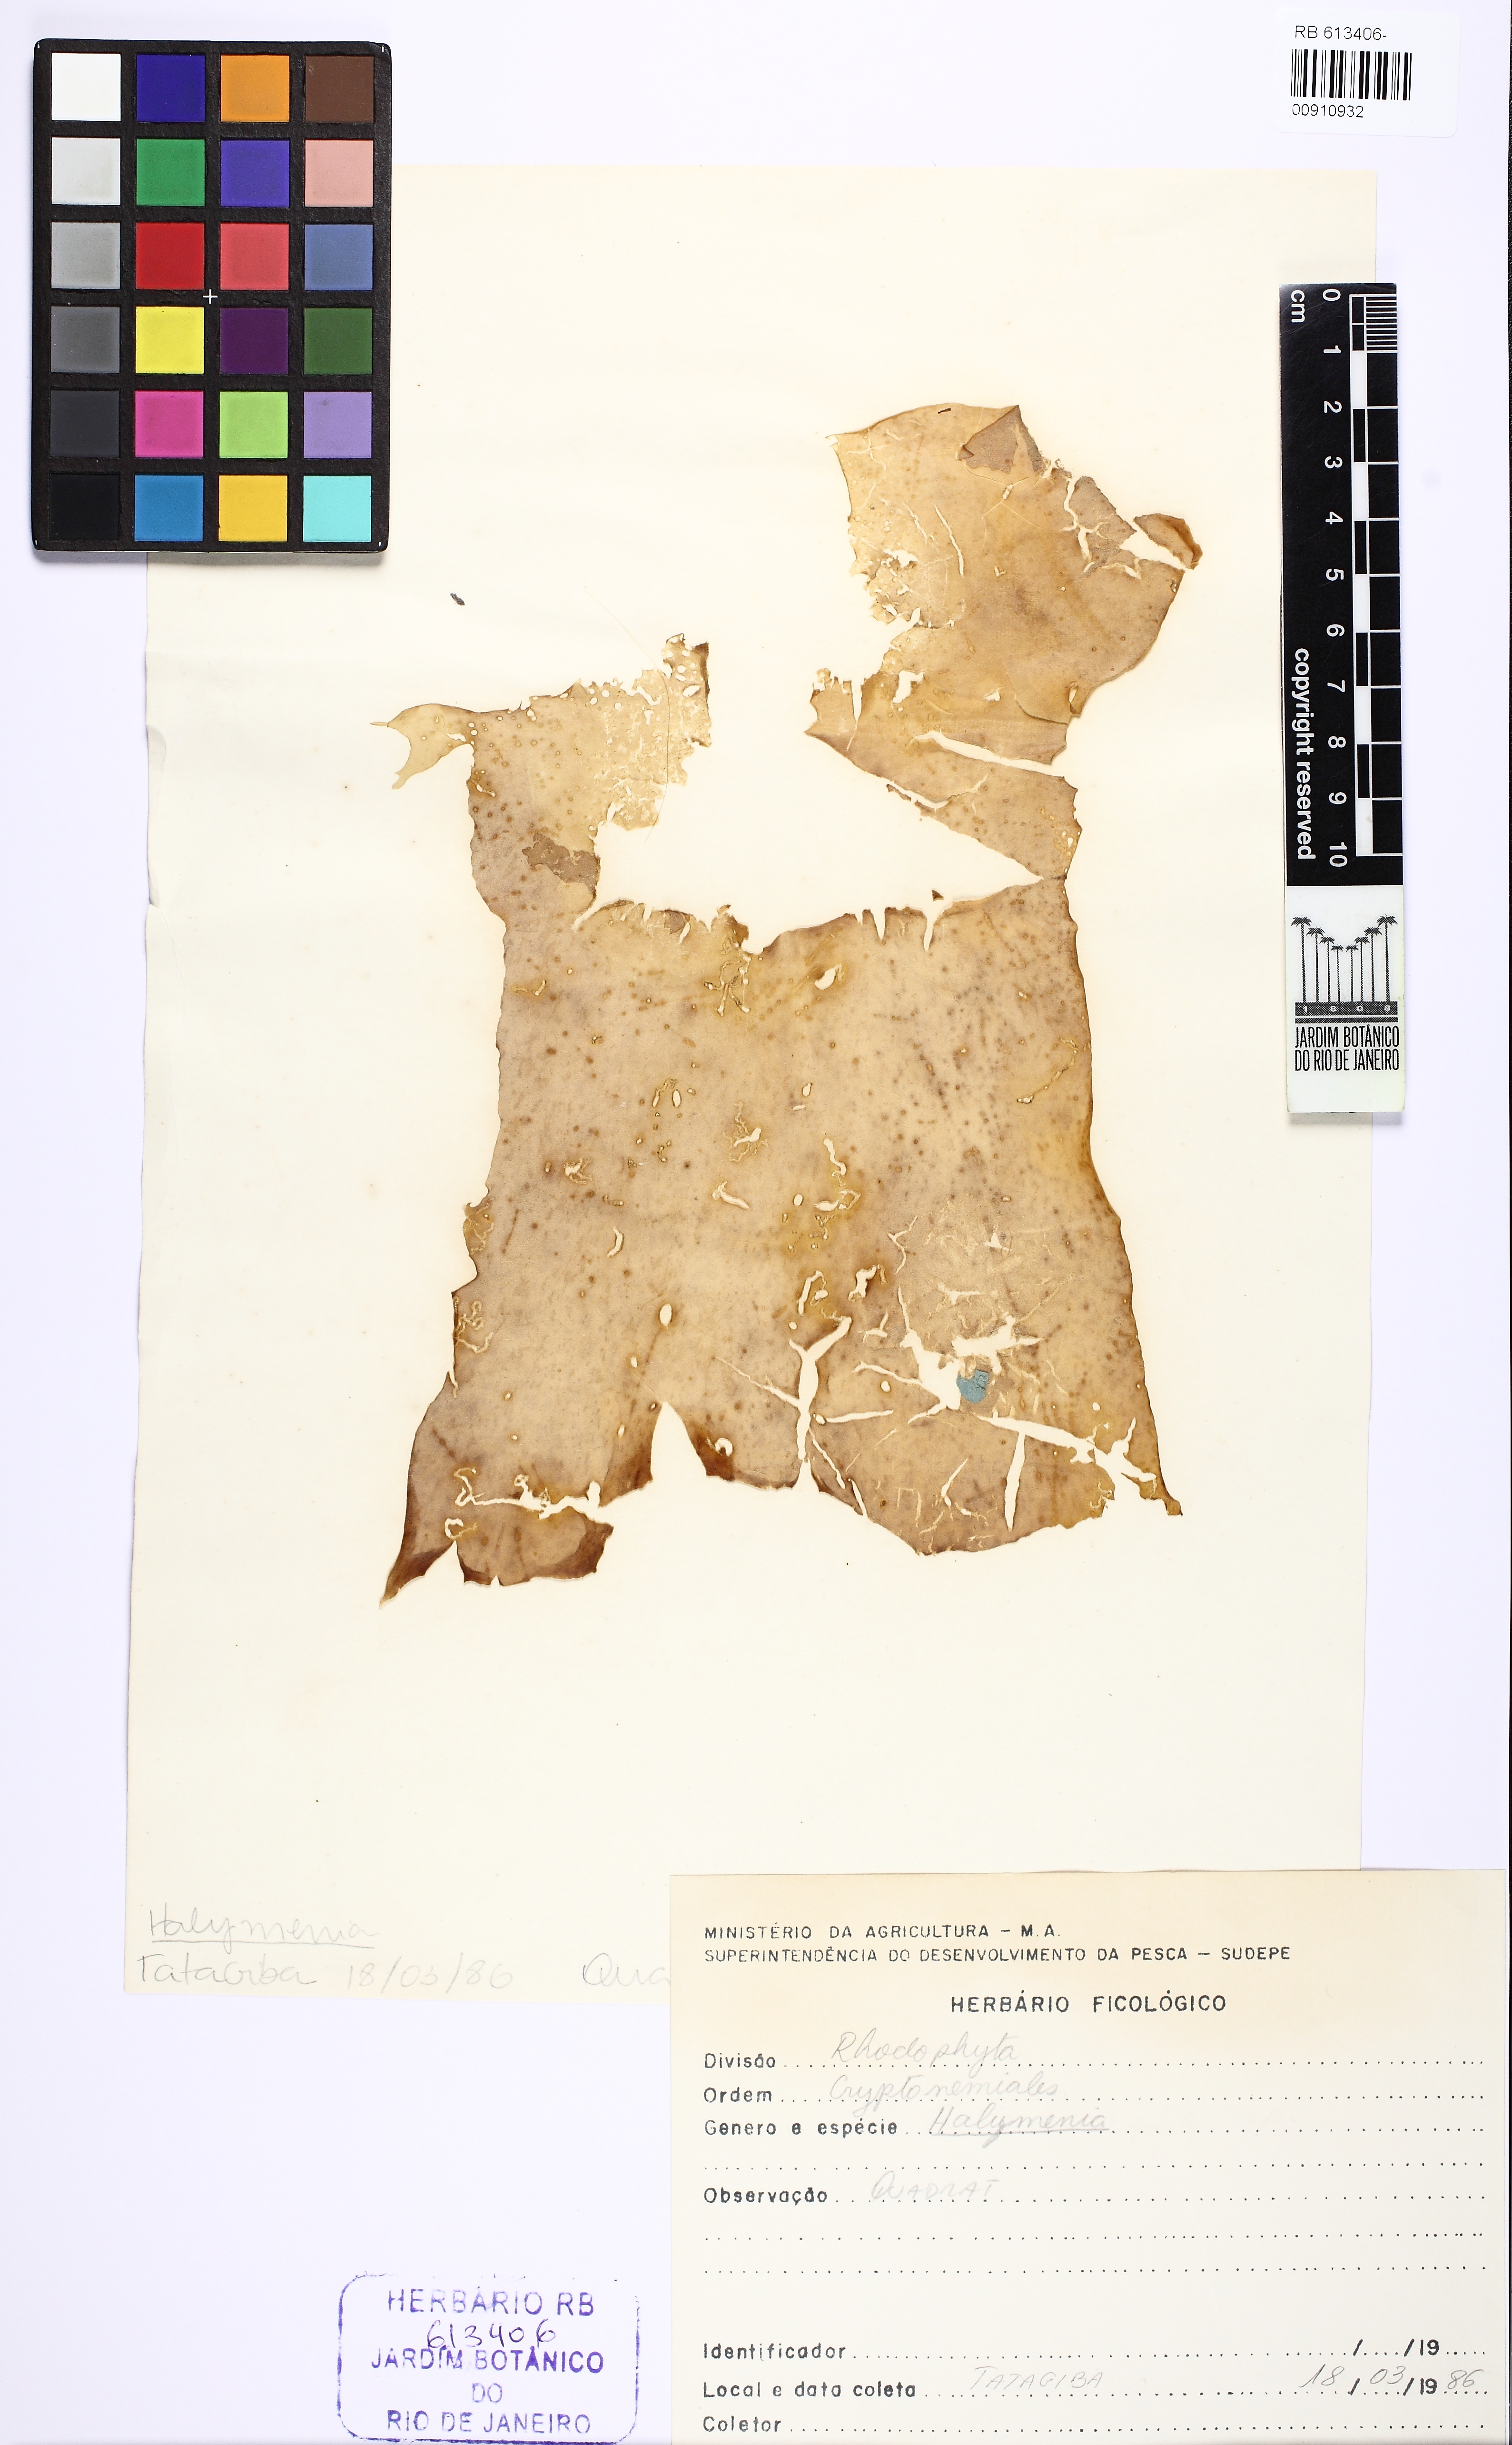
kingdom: Plantae
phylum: Rhodophyta
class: Florideophyceae
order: Halymeniales
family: Halymeniaceae
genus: Halymenia
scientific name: Halymenia
